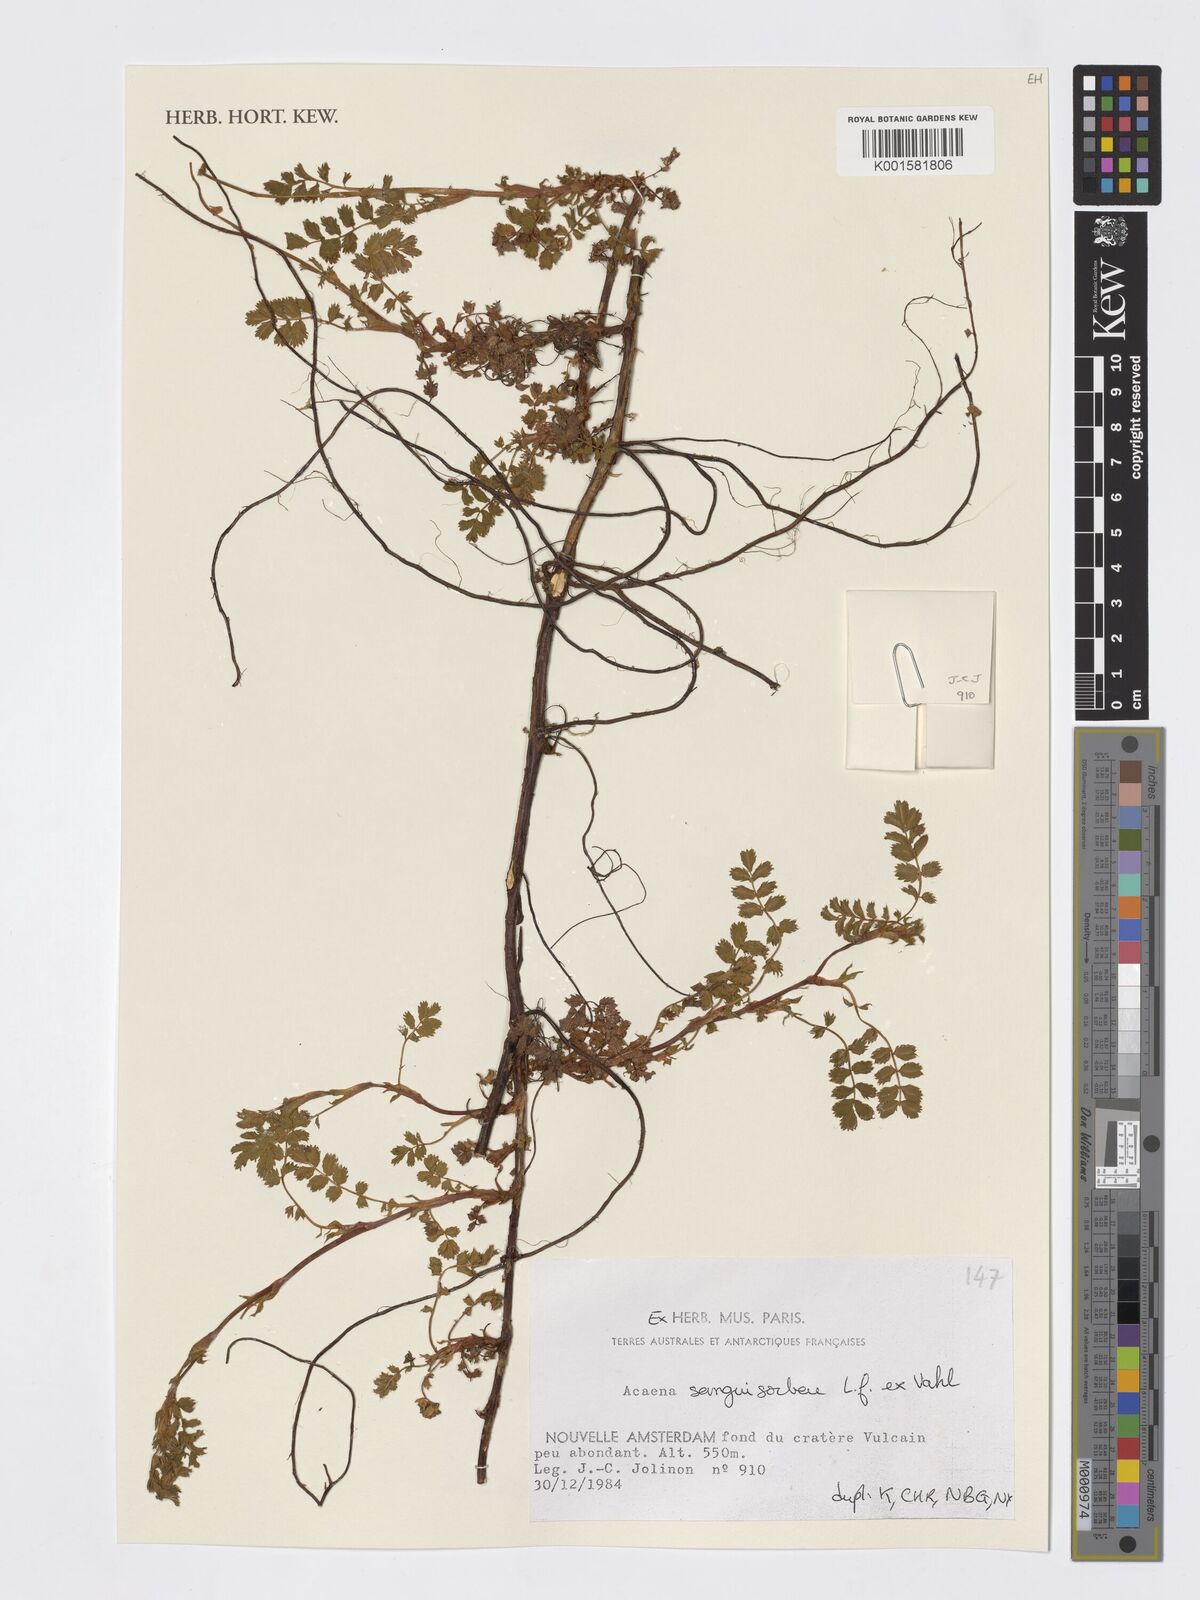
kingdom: Plantae
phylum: Tracheophyta
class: Magnoliopsida
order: Rosales
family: Rosaceae
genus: Acaena
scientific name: Acaena anserinifolia
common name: Bronze pirri-pirri-bur
